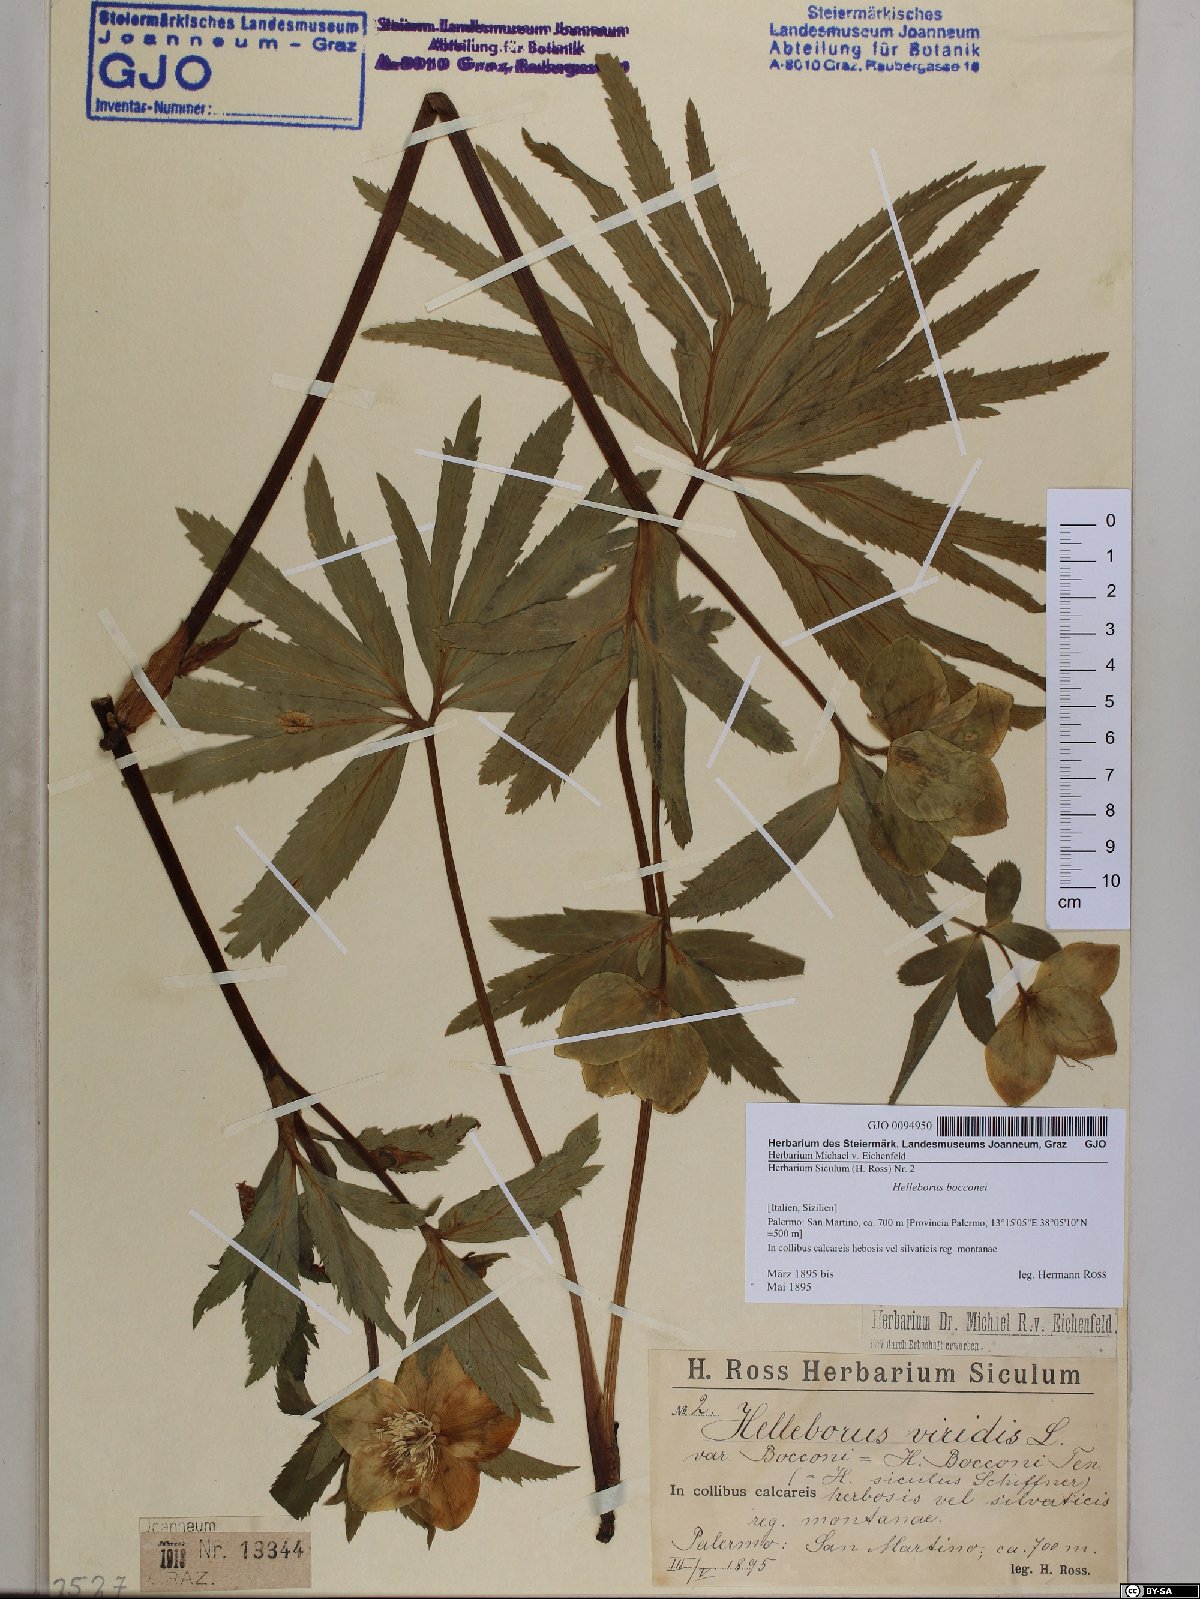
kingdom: Plantae
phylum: Tracheophyta
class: Magnoliopsida
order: Ranunculales
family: Ranunculaceae
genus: Helleborus
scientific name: Helleborus bocconei
